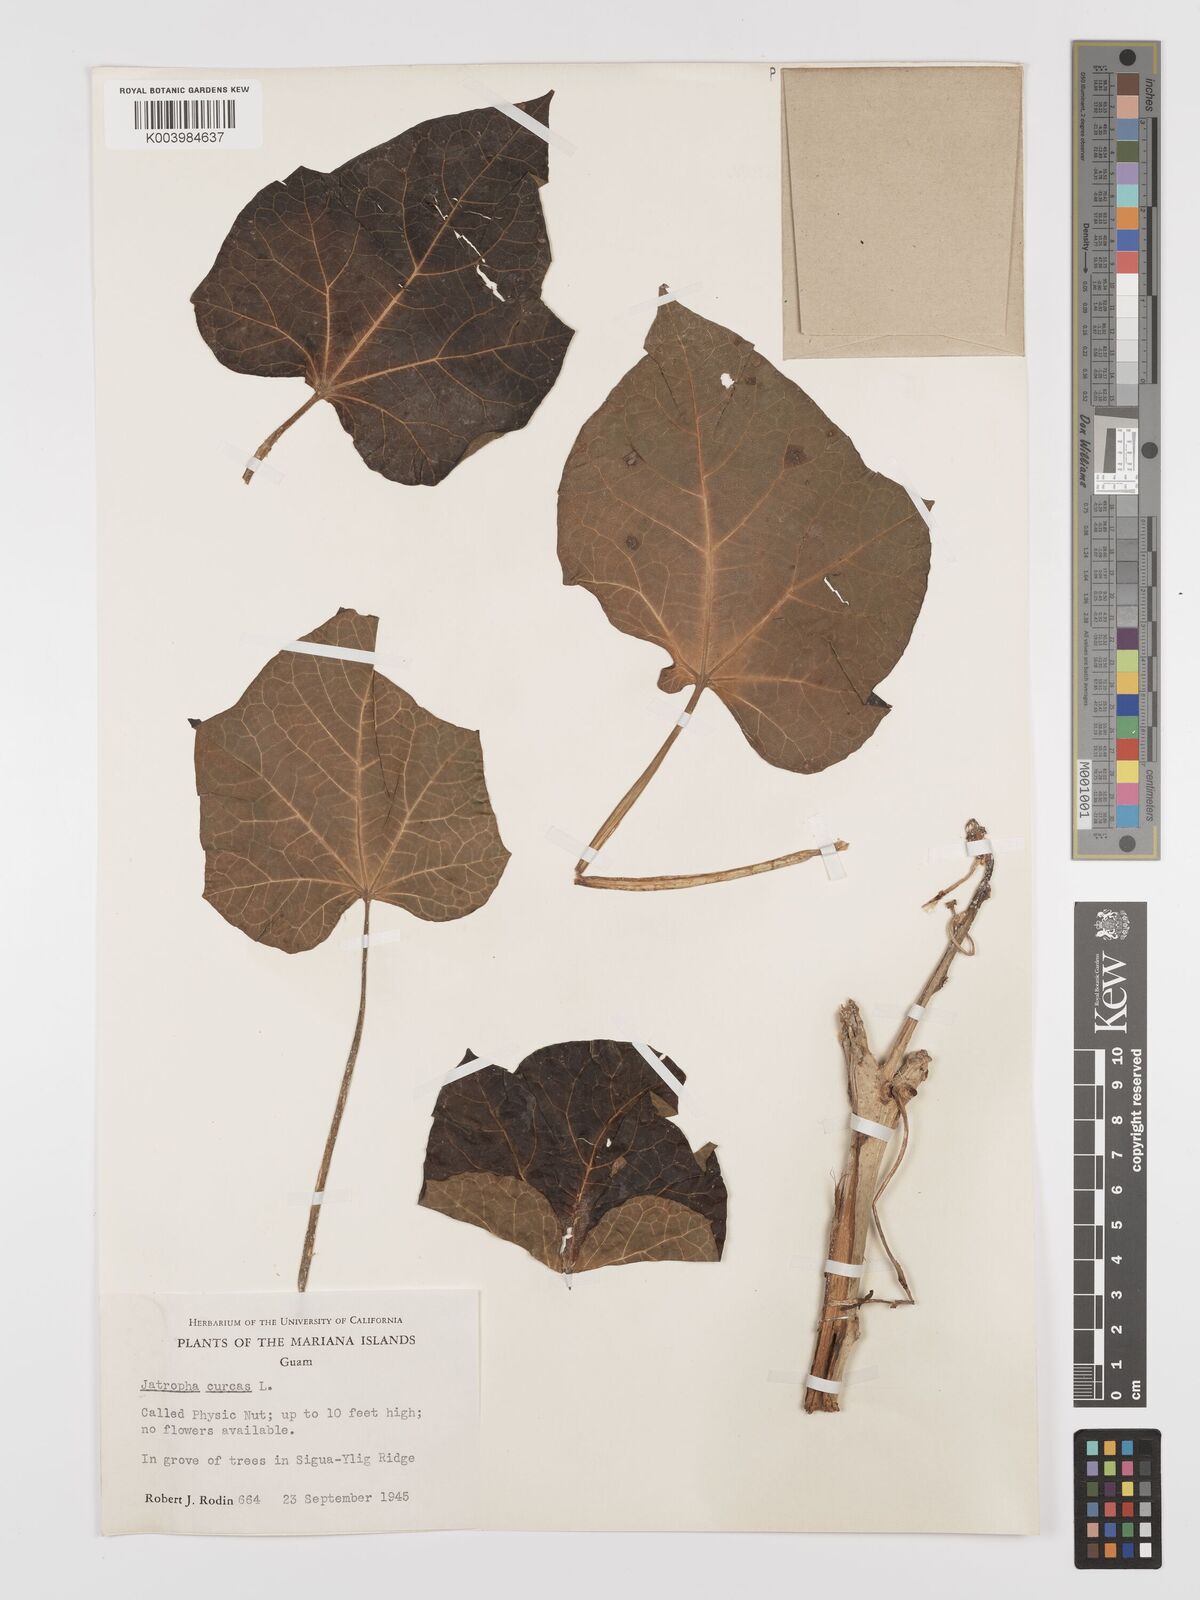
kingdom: Plantae
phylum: Tracheophyta
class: Magnoliopsida
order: Malpighiales
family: Euphorbiaceae
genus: Jatropha
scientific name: Jatropha curcas
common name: Barbados nut
